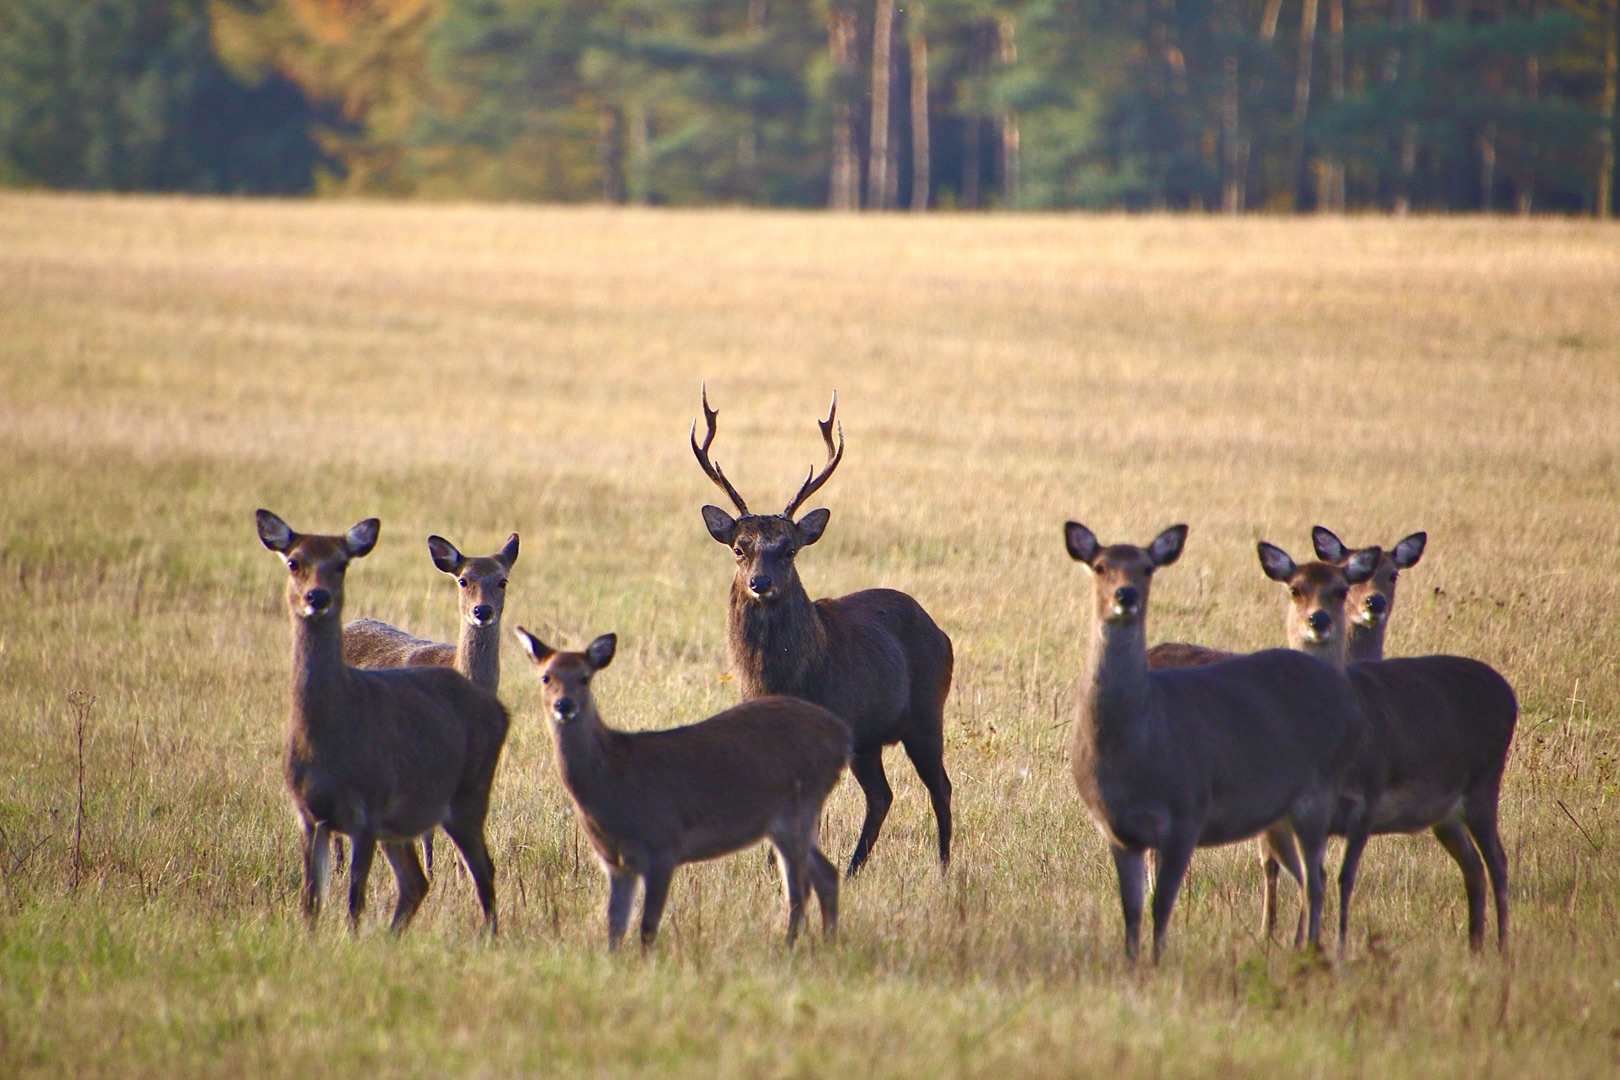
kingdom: Animalia
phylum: Chordata
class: Mammalia
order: Artiodactyla
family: Cervidae
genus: Cervus
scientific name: Cervus nippon
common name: Sika
